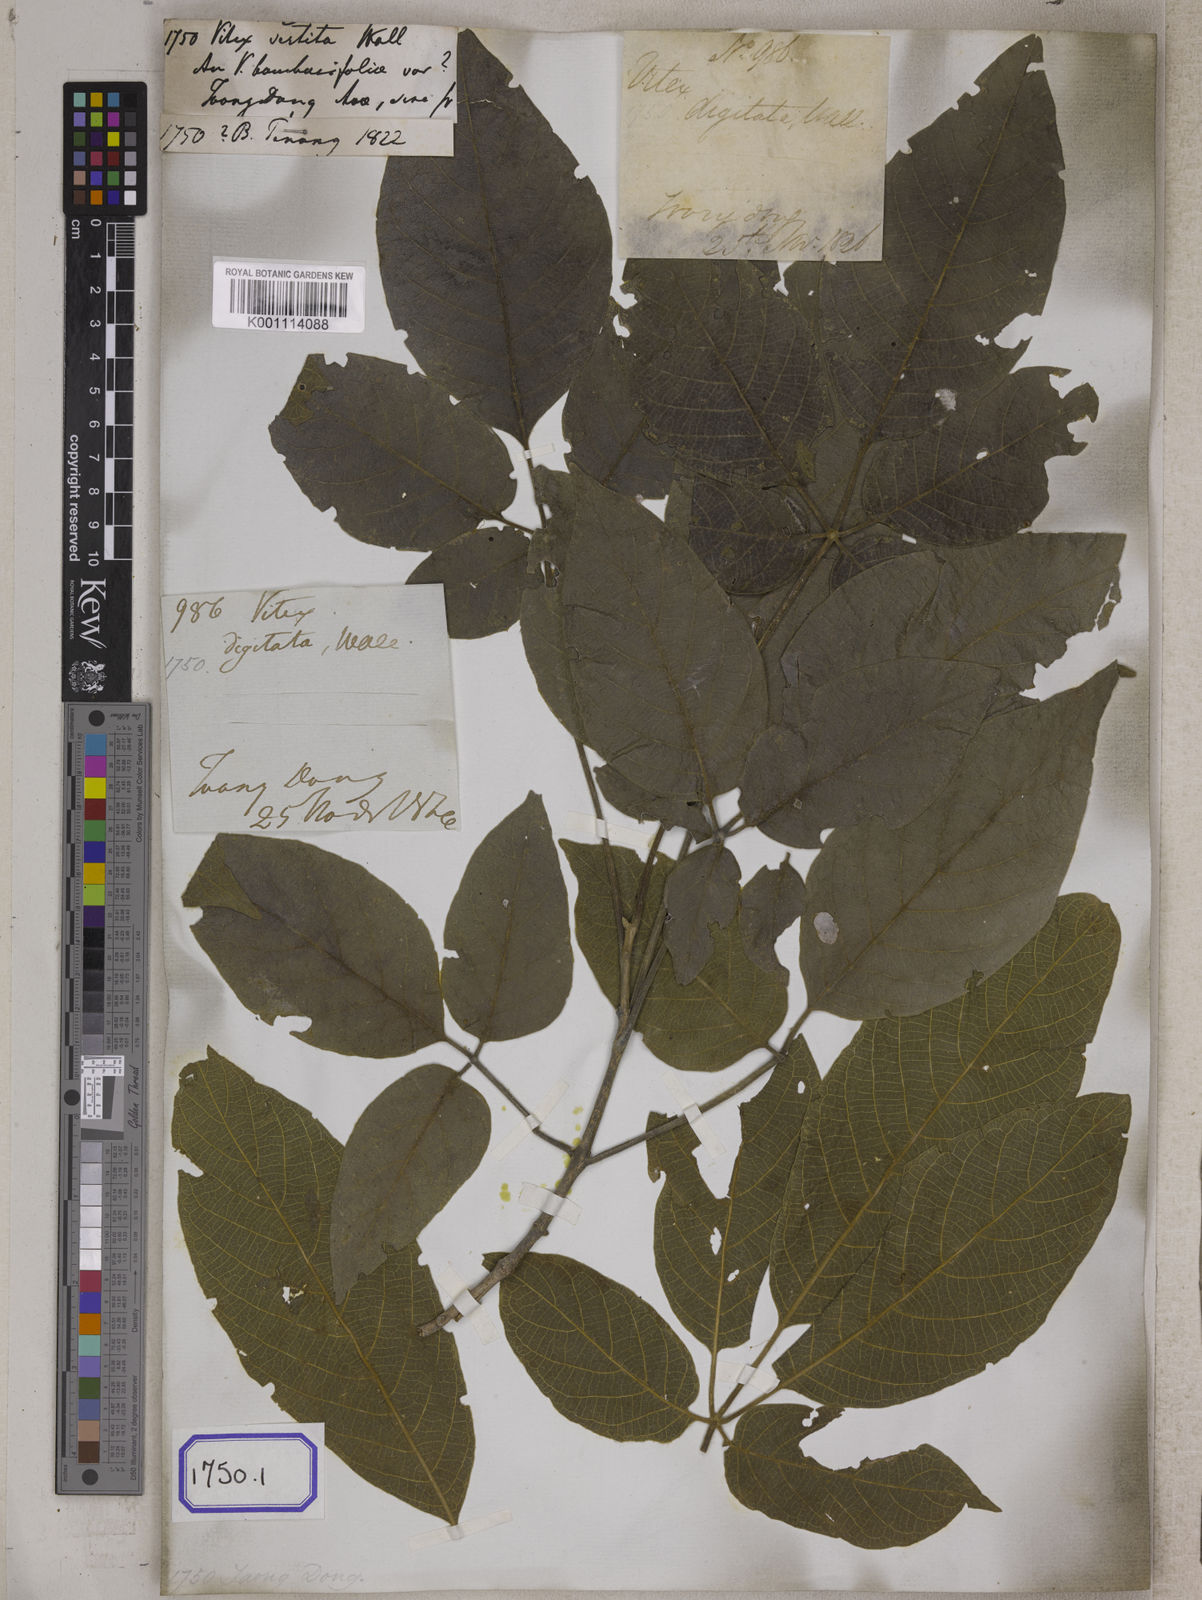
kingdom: Plantae
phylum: Tracheophyta
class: Magnoliopsida
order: Lamiales
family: Lamiaceae
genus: Vitex
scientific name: Vitex vestita
